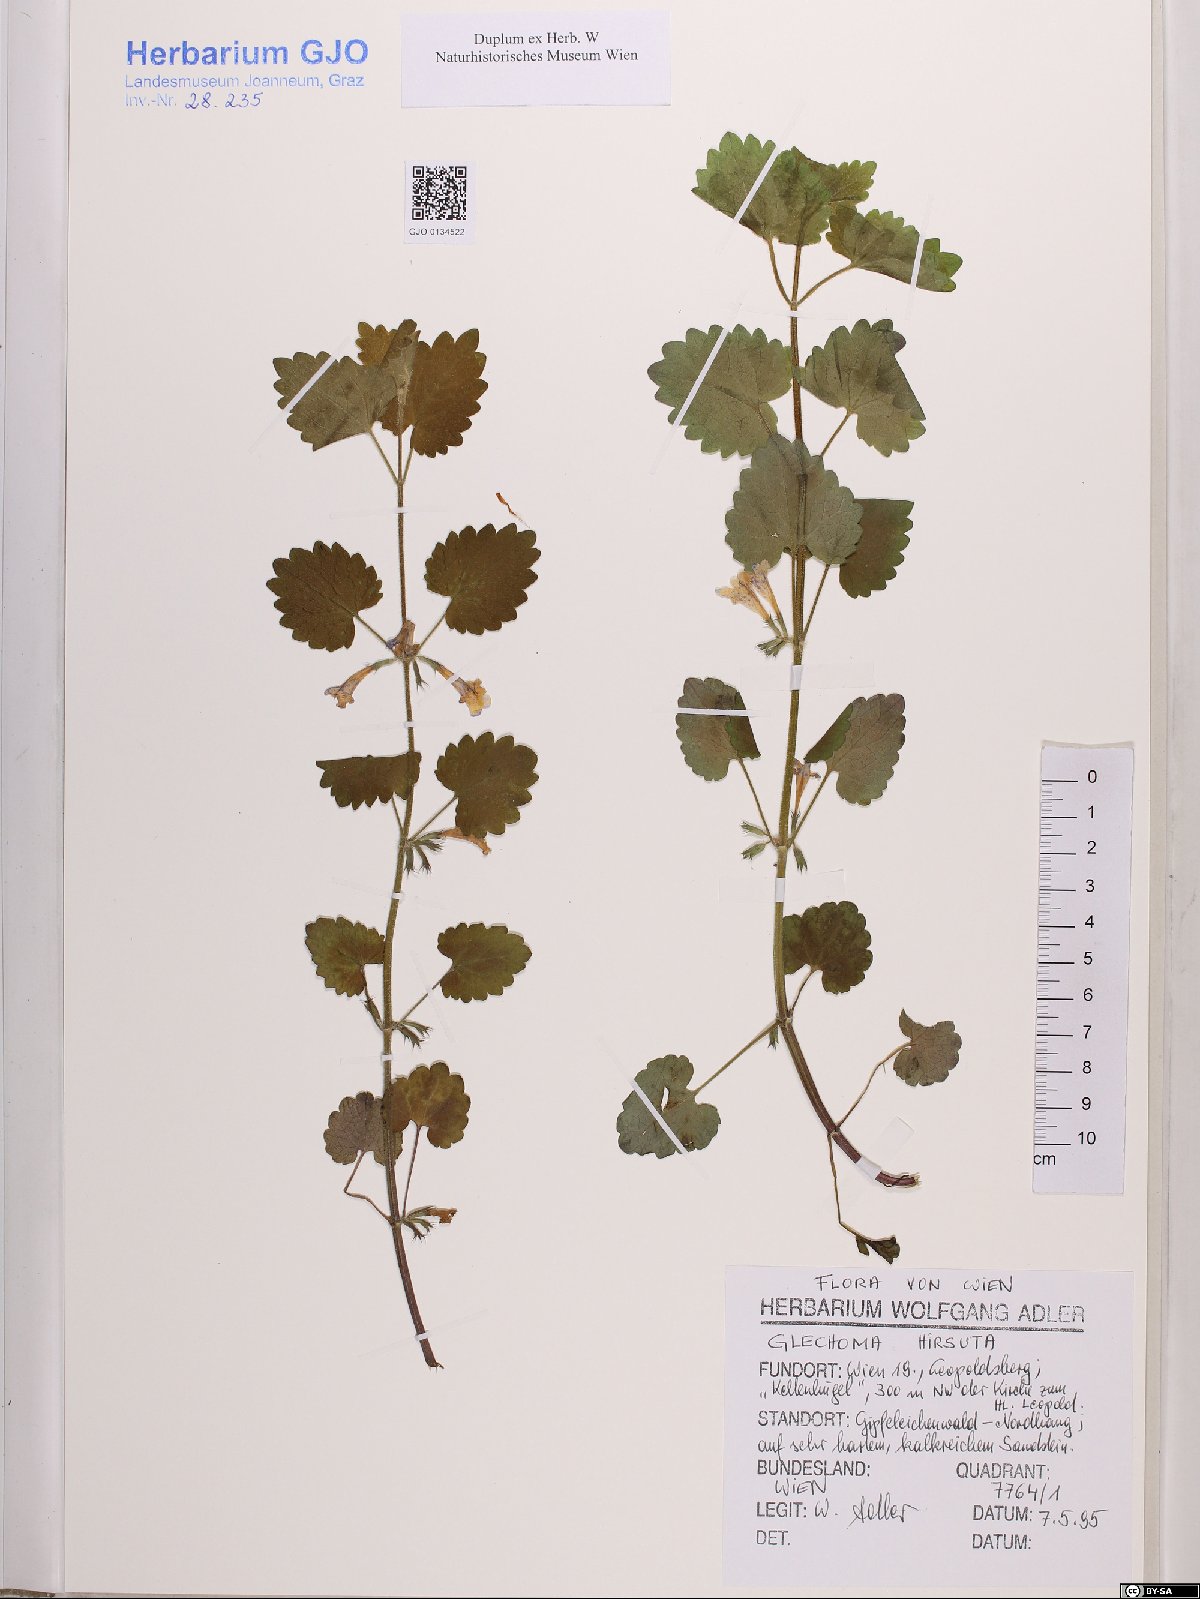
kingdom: Plantae
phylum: Tracheophyta
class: Magnoliopsida
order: Lamiales
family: Lamiaceae
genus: Glechoma
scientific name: Glechoma hirsuta
